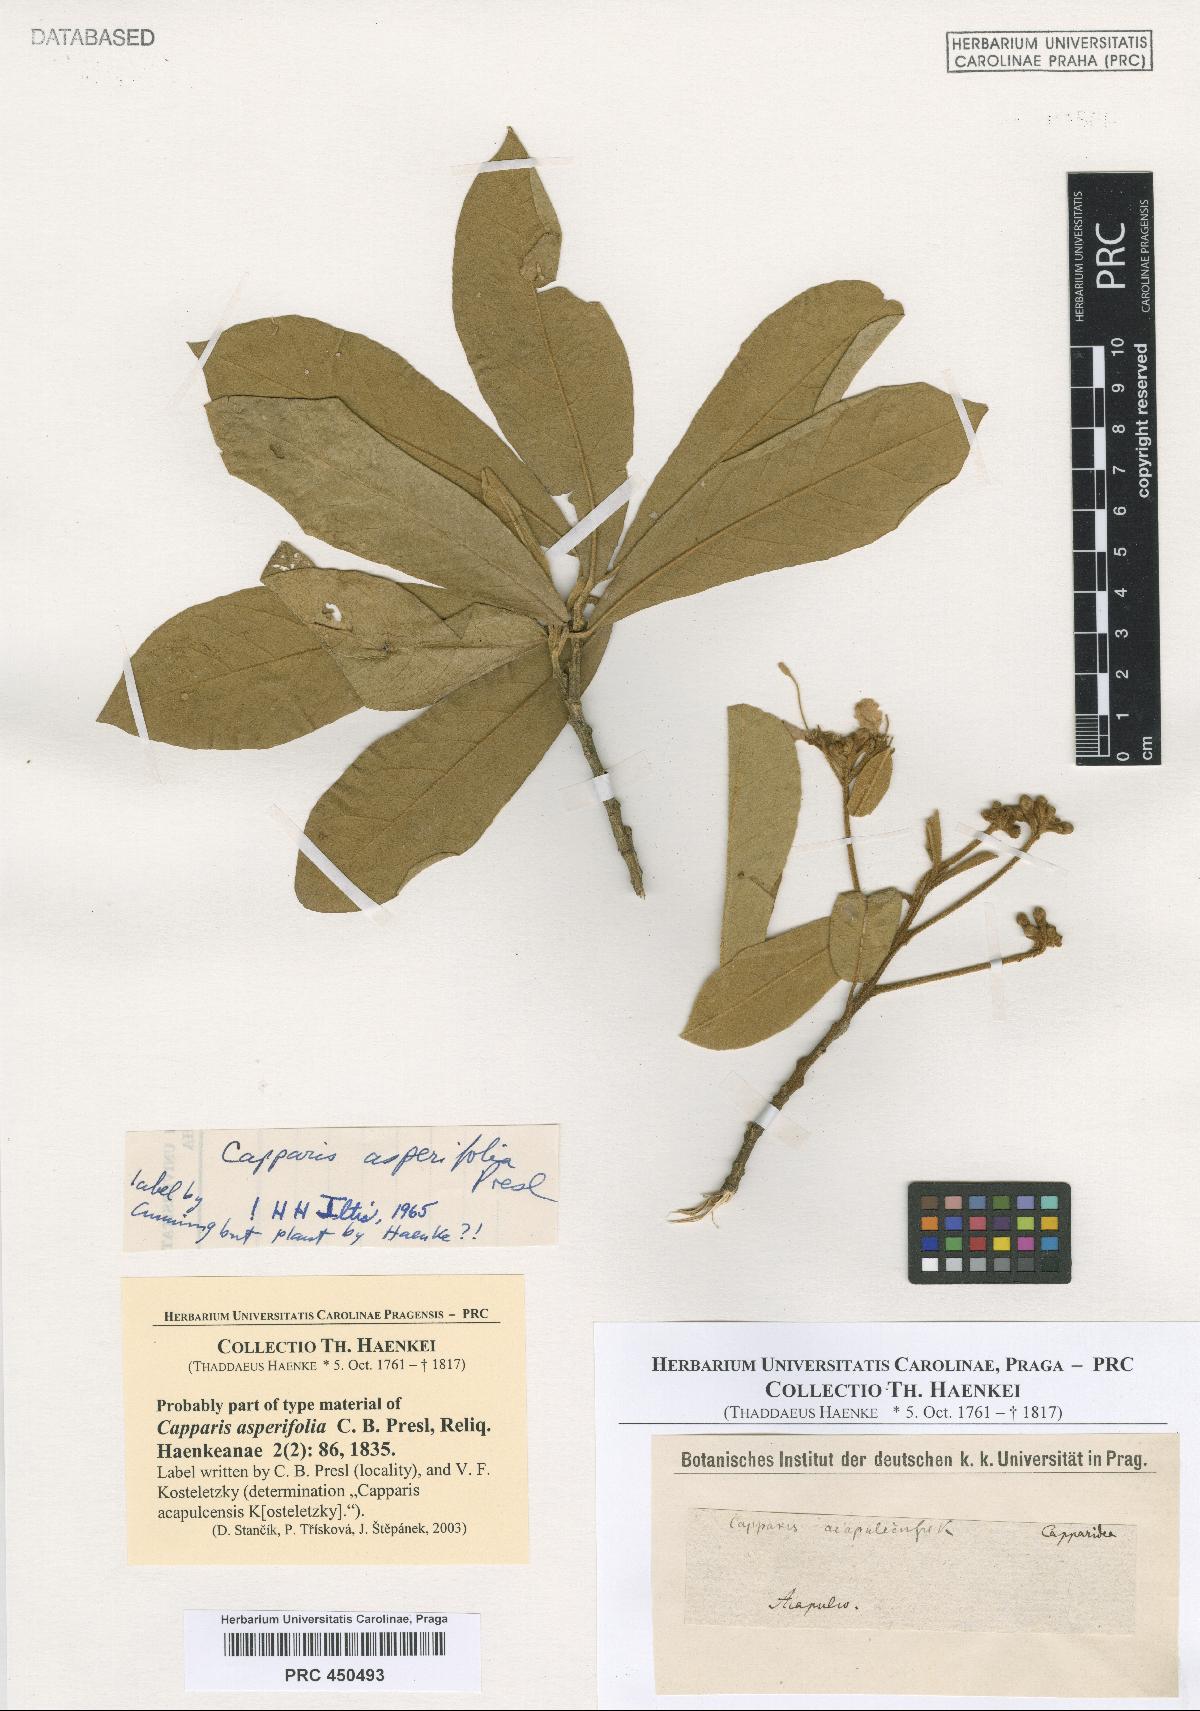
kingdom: Plantae
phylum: Tracheophyta
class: Magnoliopsida
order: Brassicales
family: Capparaceae
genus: Quadrella
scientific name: Quadrella asperifolia
